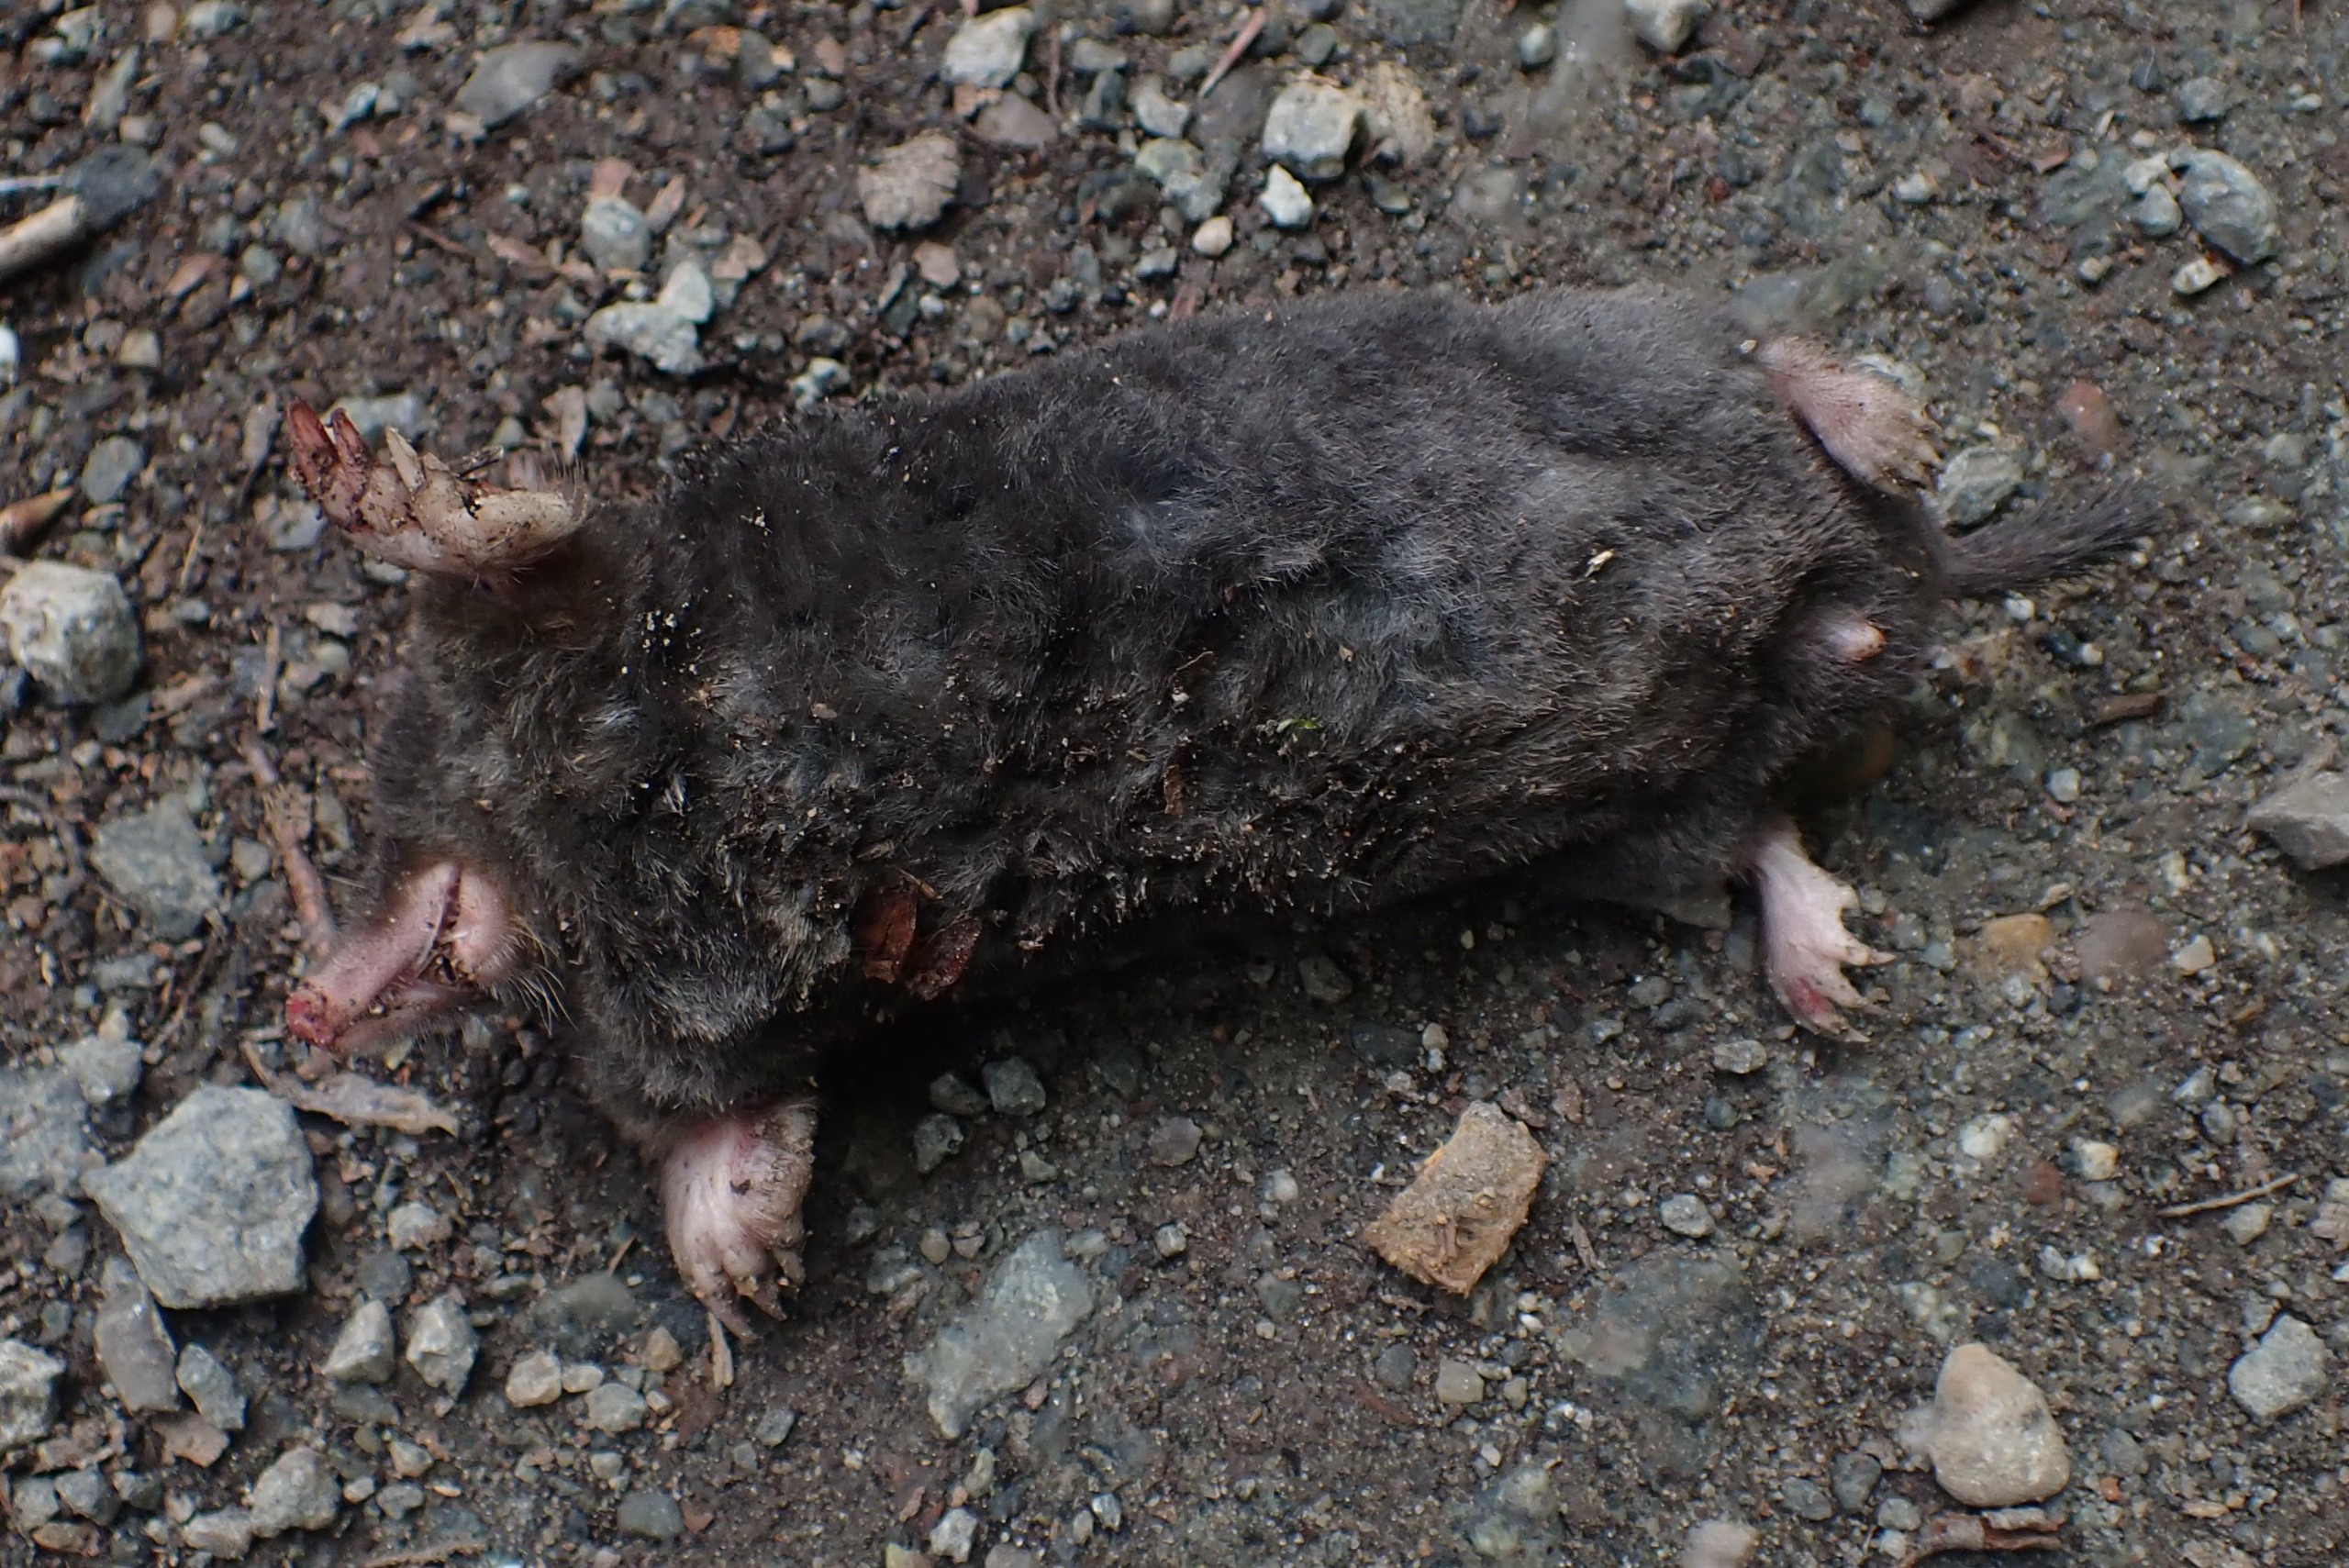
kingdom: Animalia
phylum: Chordata
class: Mammalia
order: Soricomorpha
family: Talpidae
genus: Talpa
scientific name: Talpa europaea
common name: Muldvarp
